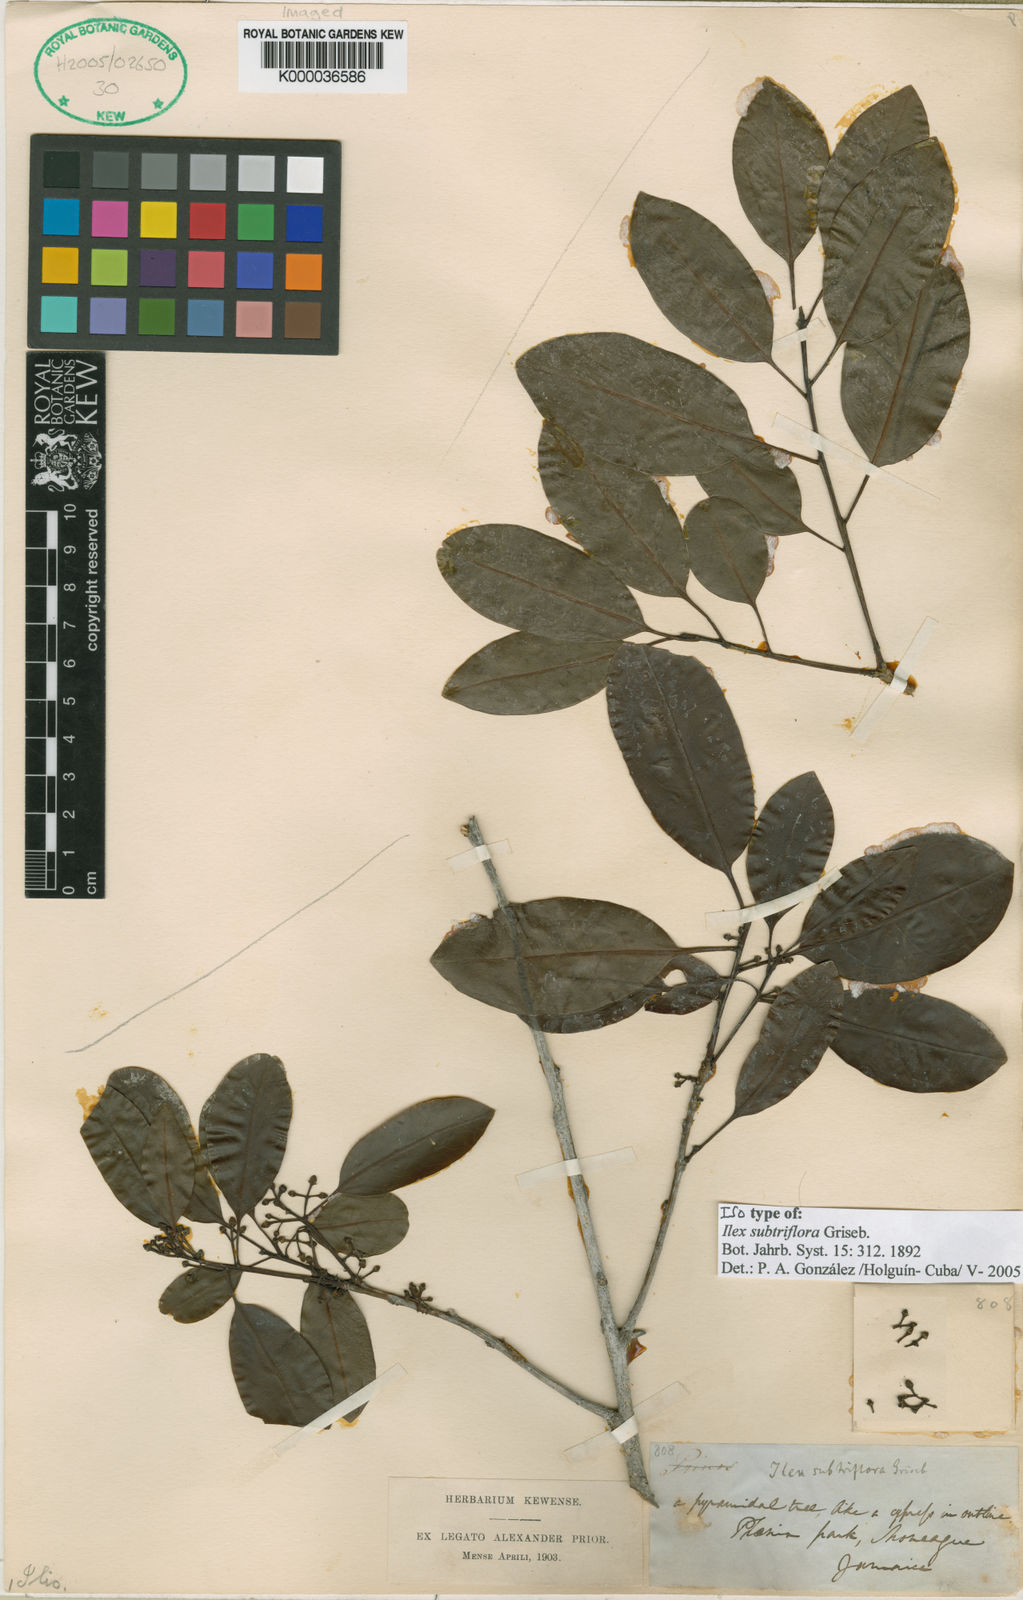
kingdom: Plantae
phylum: Tracheophyta
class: Magnoliopsida
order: Aquifoliales
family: Aquifoliaceae
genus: Ilex
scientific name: Ilex
